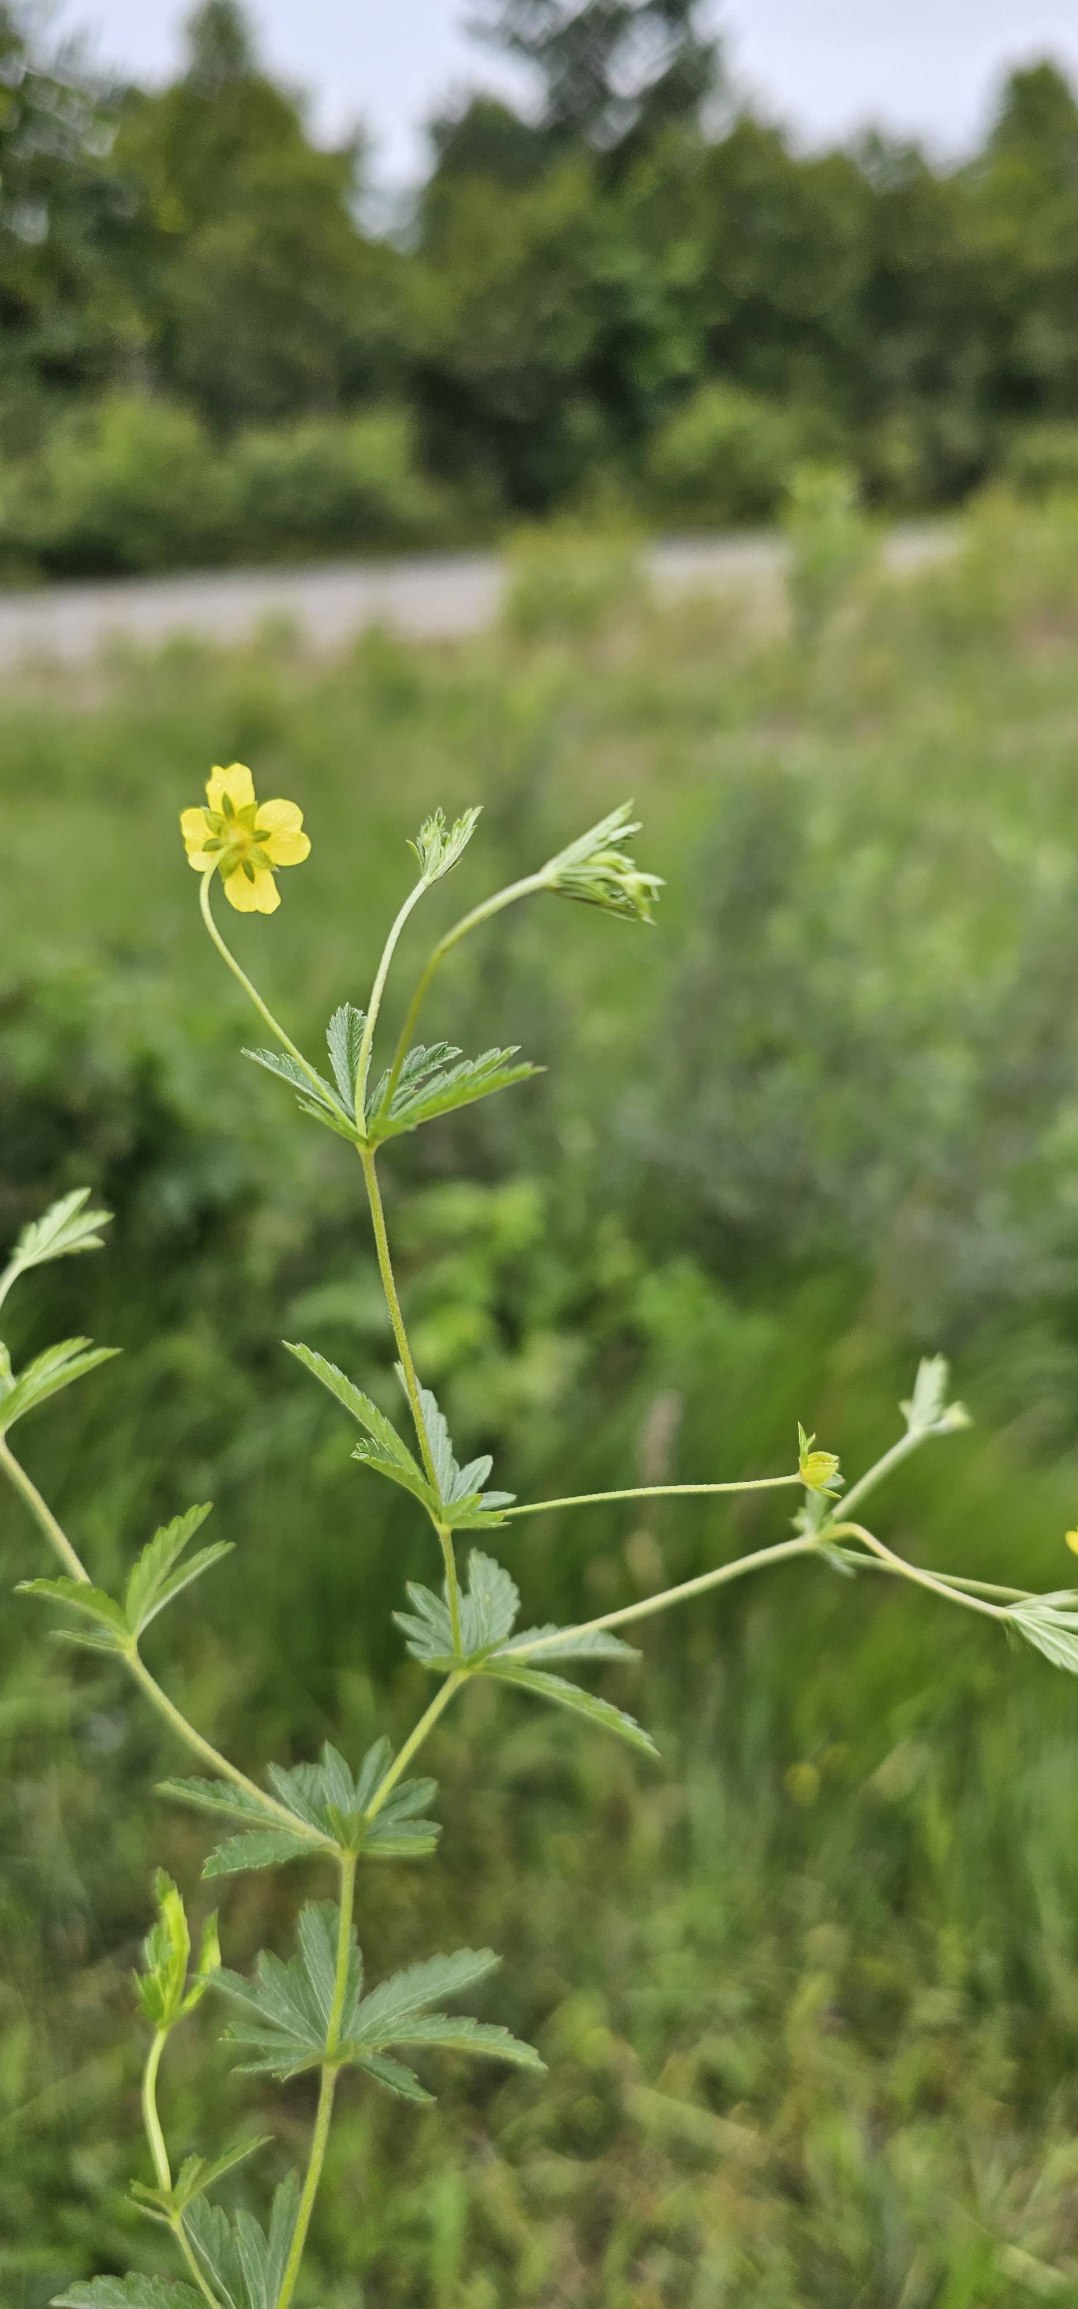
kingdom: Plantae
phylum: Tracheophyta
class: Magnoliopsida
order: Rosales
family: Rosaceae
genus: Potentilla
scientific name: Potentilla erecta
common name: Tormentil
